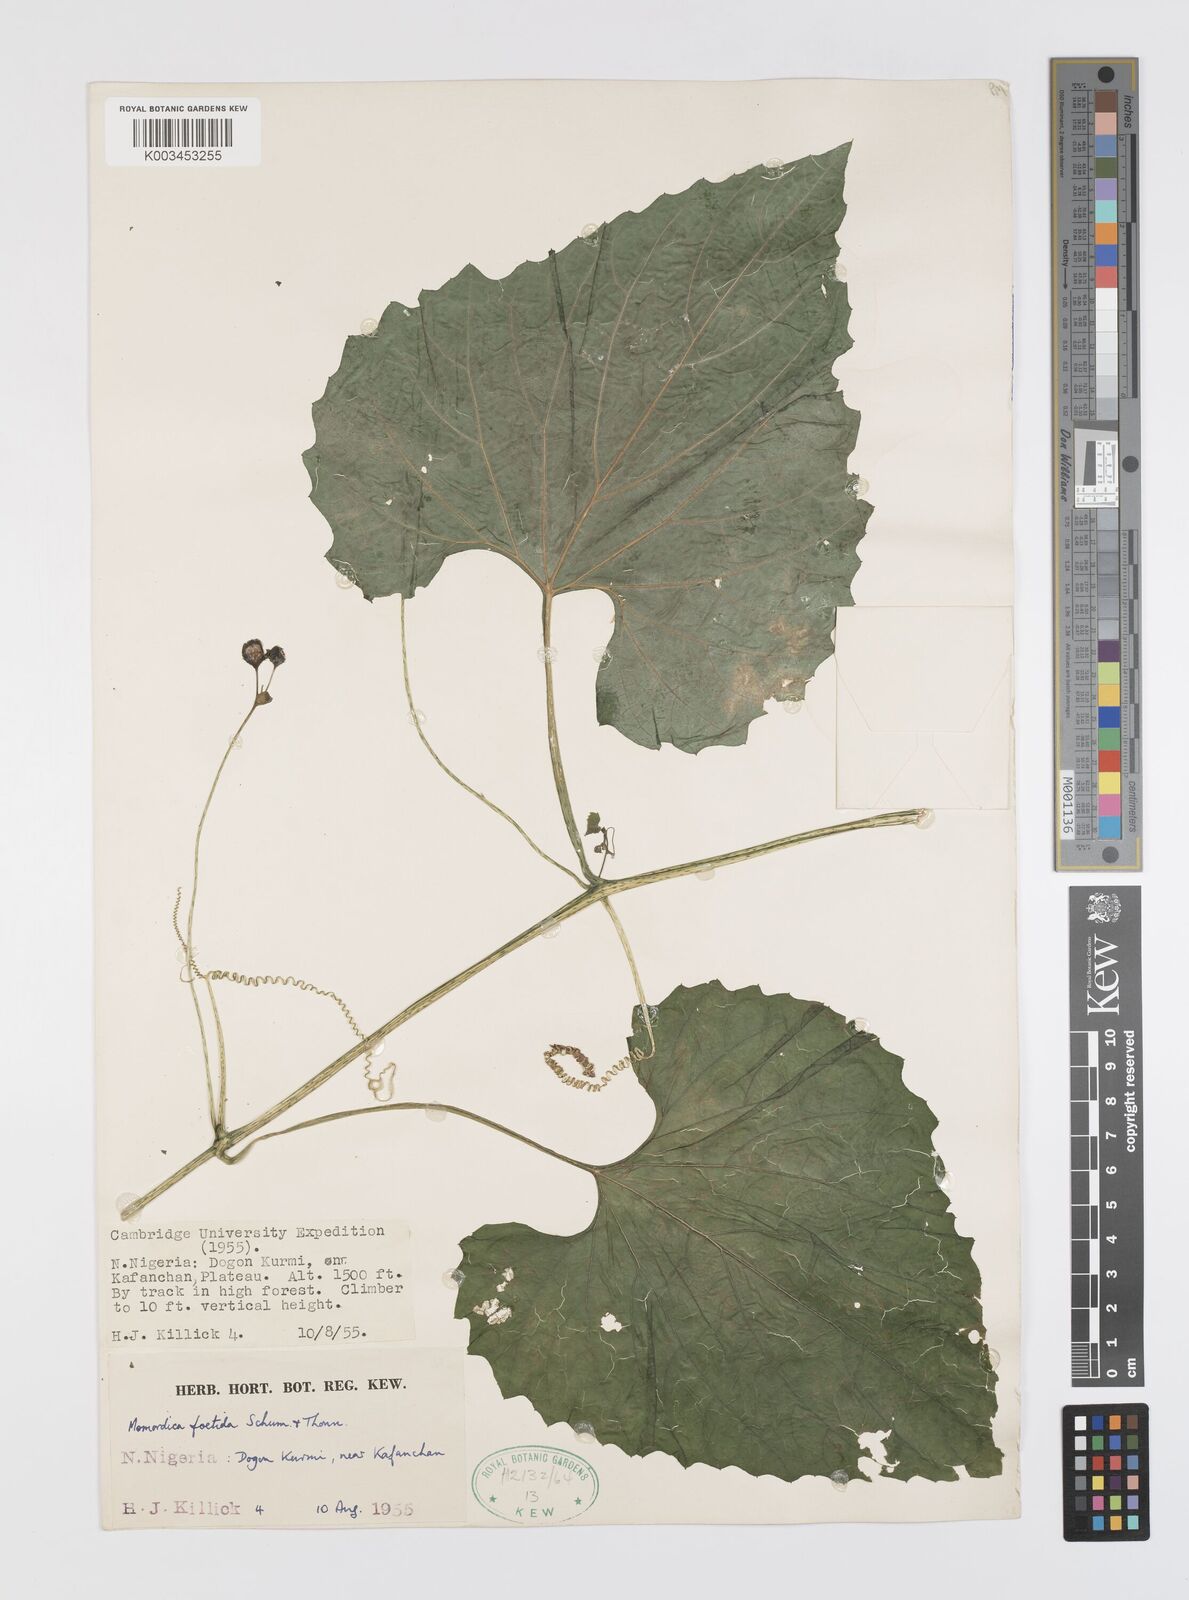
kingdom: Plantae
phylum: Tracheophyta
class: Magnoliopsida
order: Cucurbitales
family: Cucurbitaceae
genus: Momordica
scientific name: Momordica foetida
